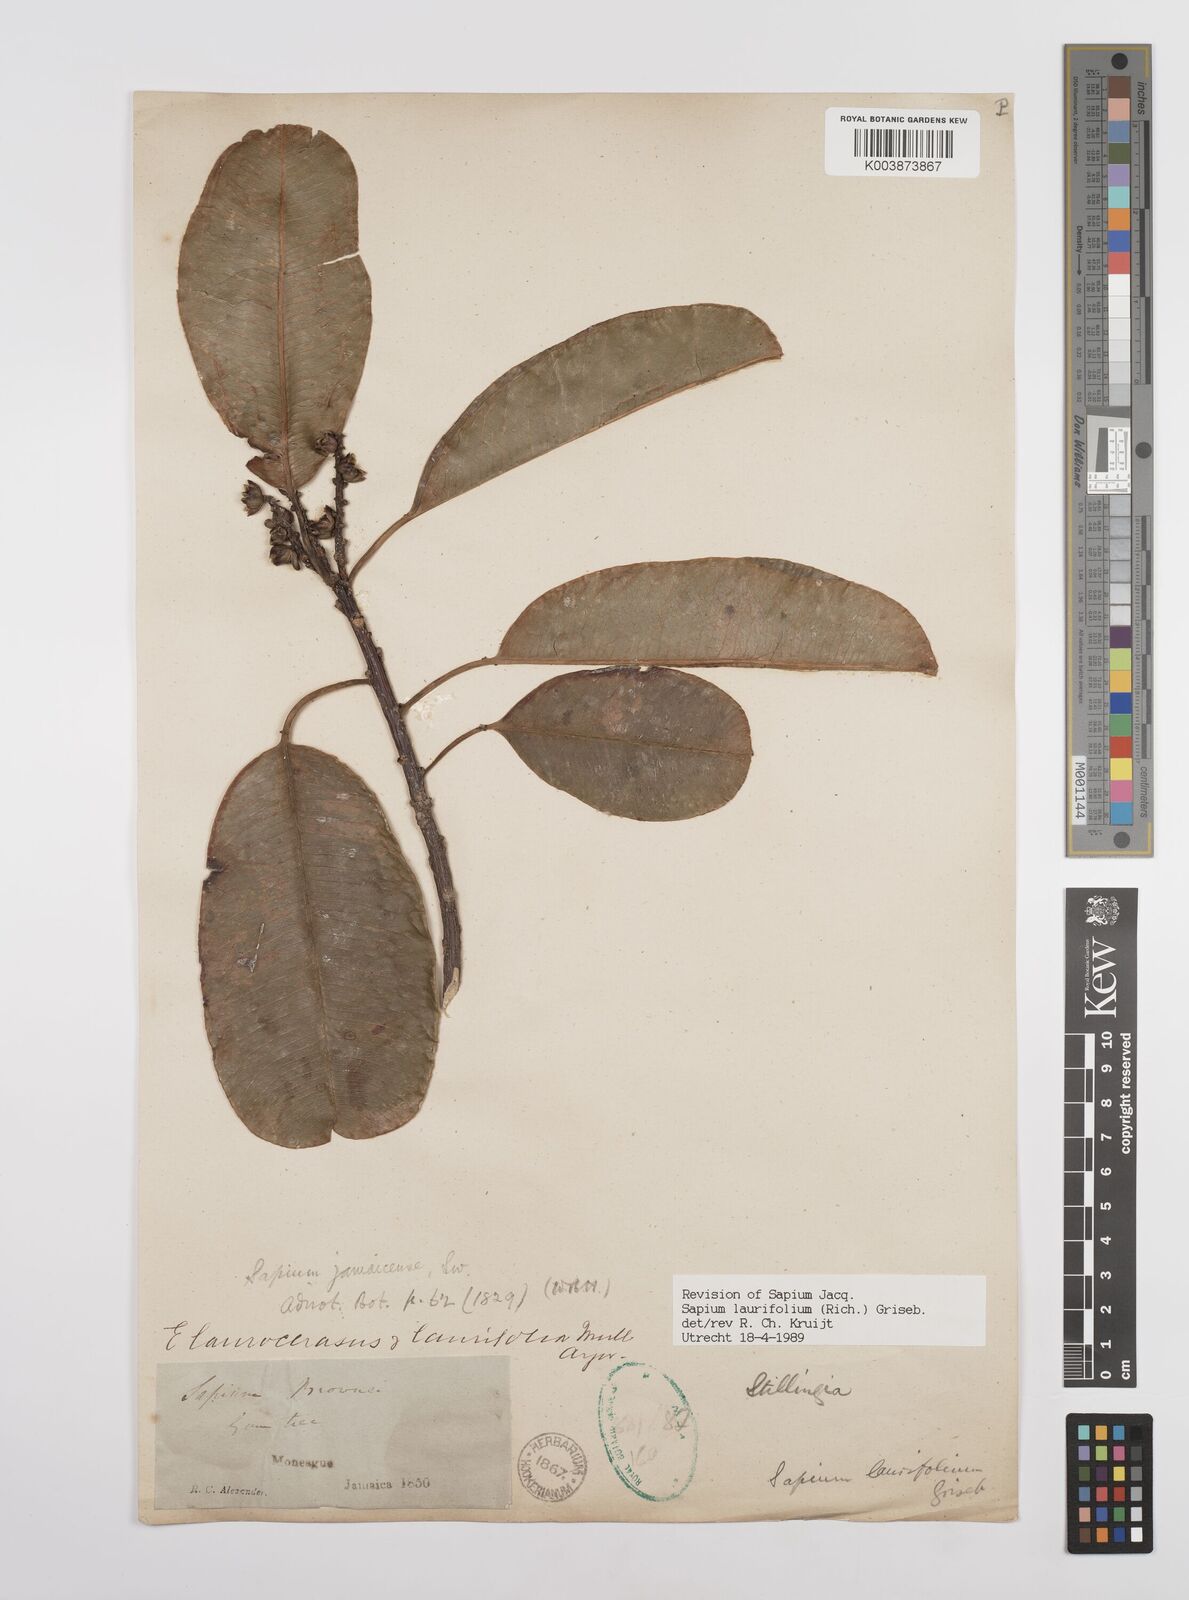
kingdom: Plantae
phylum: Tracheophyta
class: Magnoliopsida
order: Malpighiales
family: Euphorbiaceae
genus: Sapium
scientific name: Sapium glandulosum
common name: Milktree
